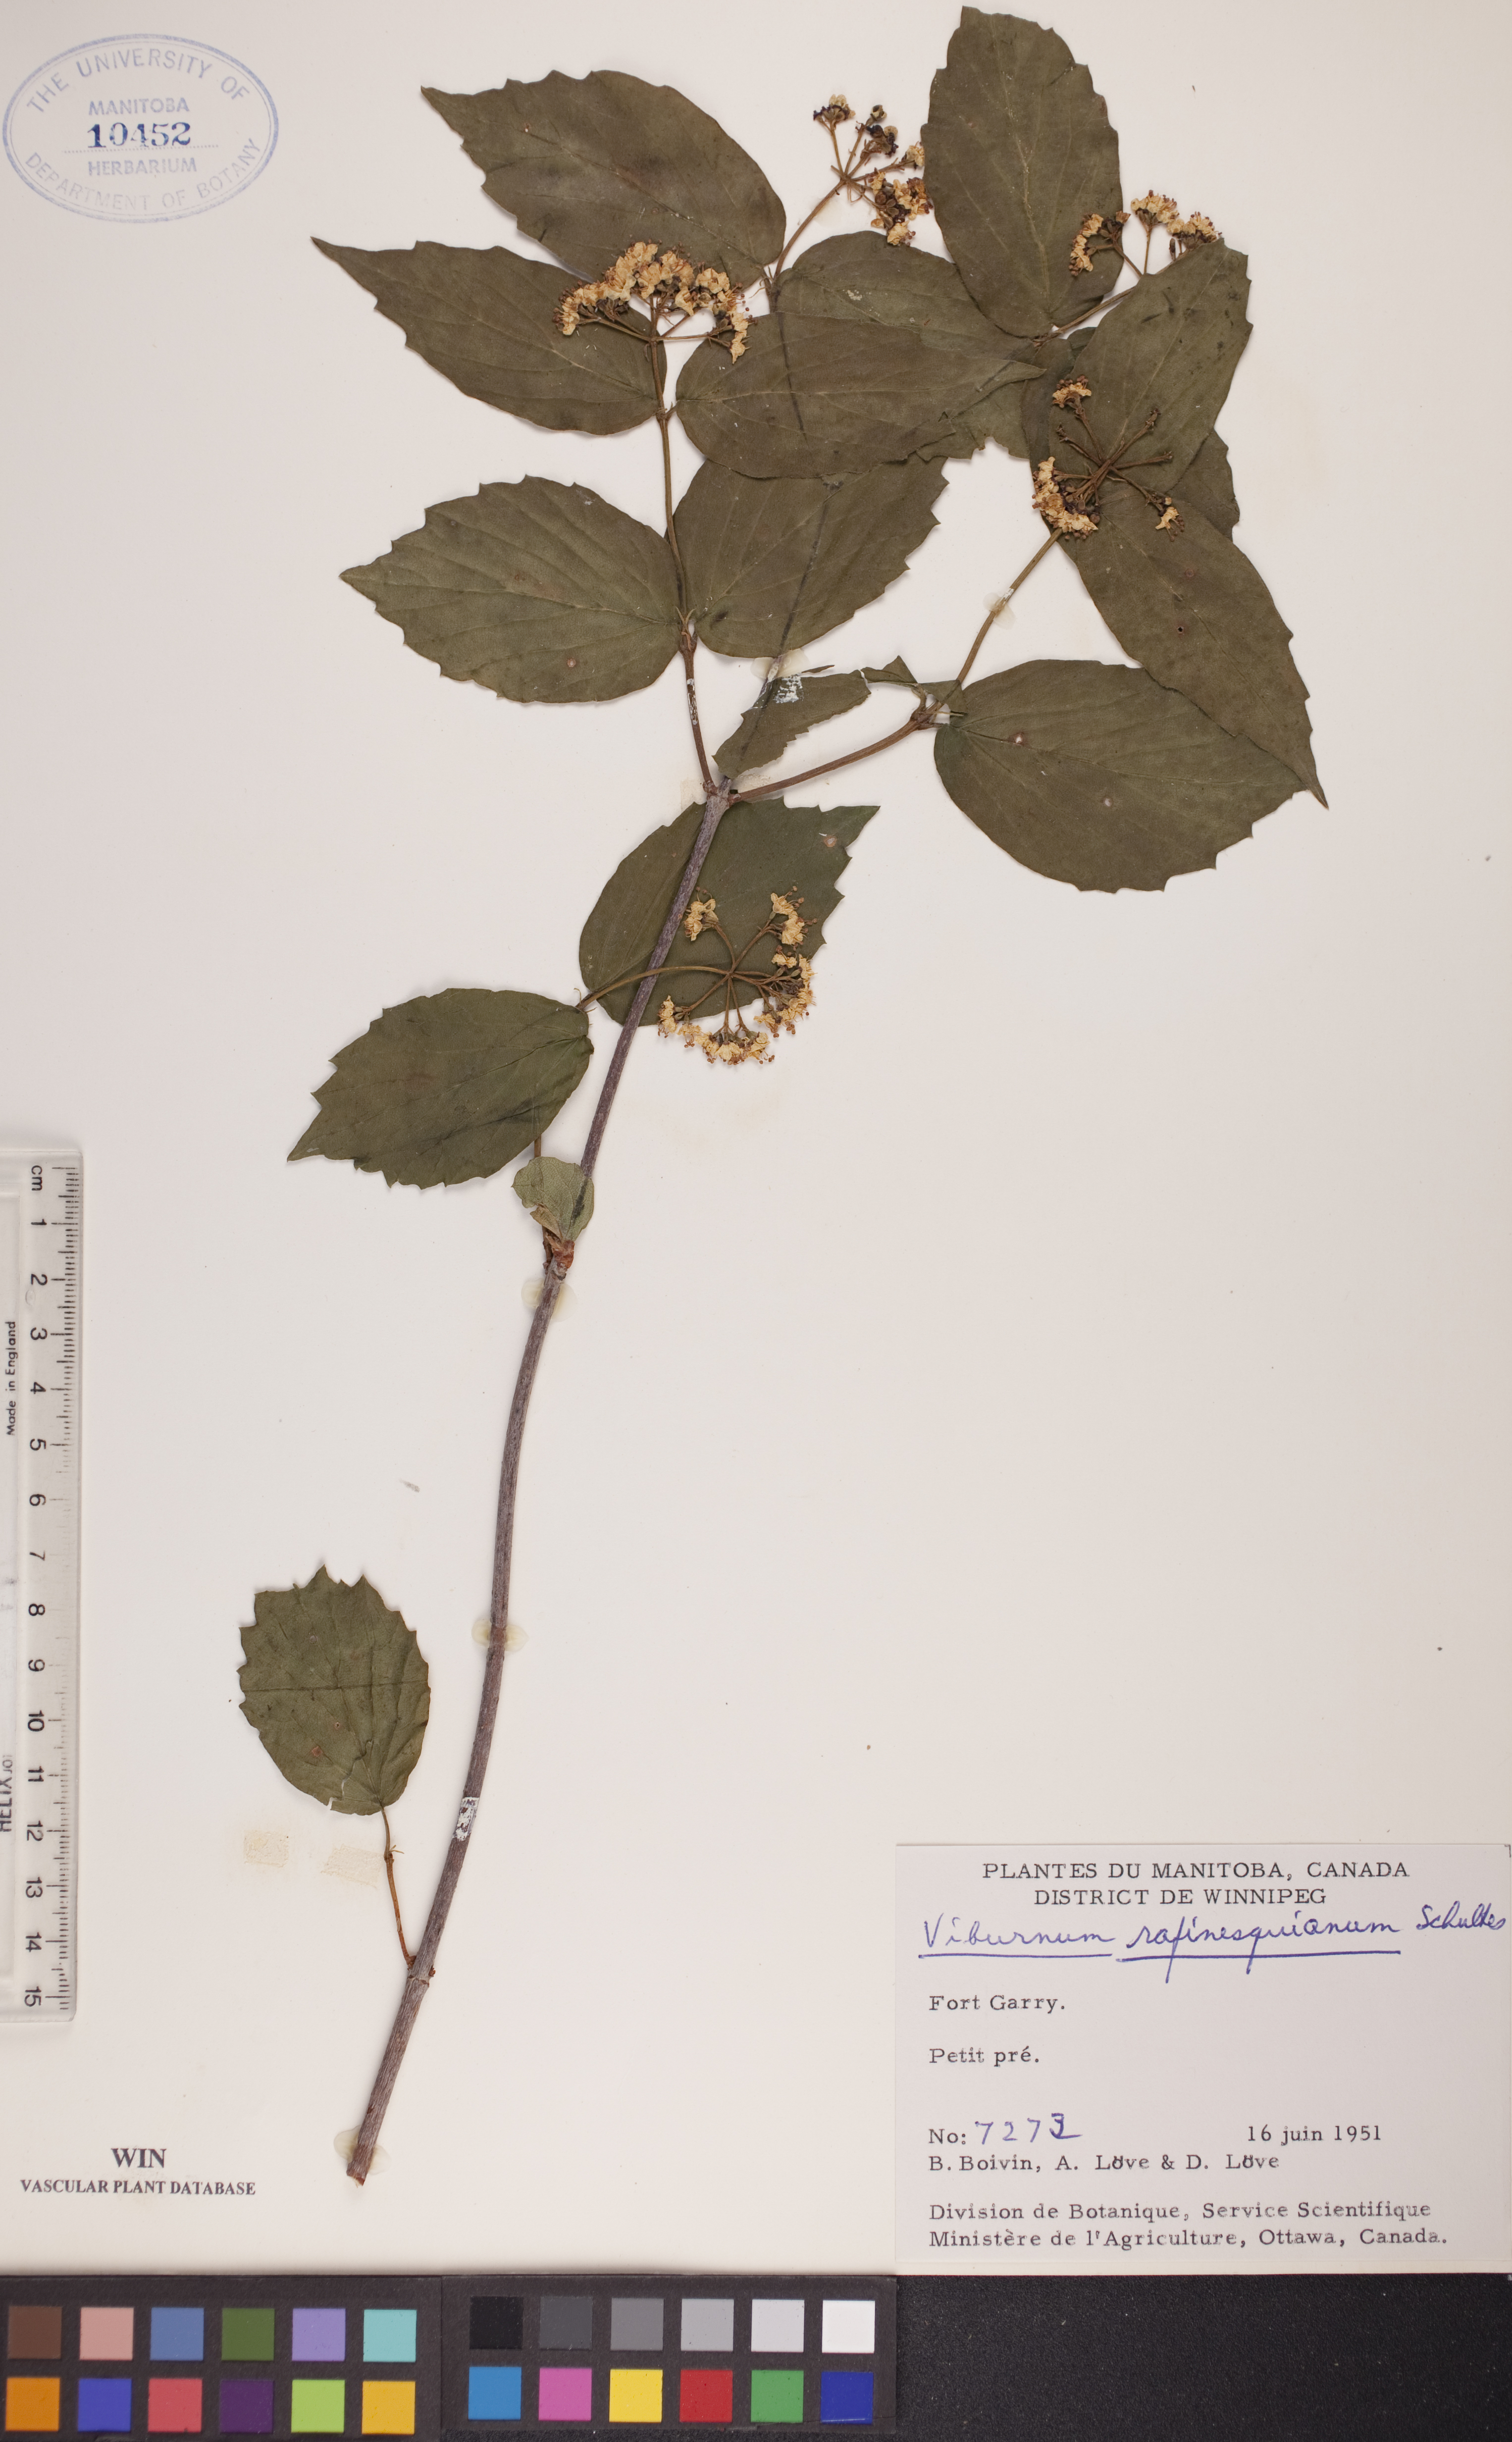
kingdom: Plantae
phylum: Tracheophyta
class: Magnoliopsida
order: Dipsacales
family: Viburnaceae
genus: Viburnum
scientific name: Viburnum rafinesquianum
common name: Downy arrow-wood
